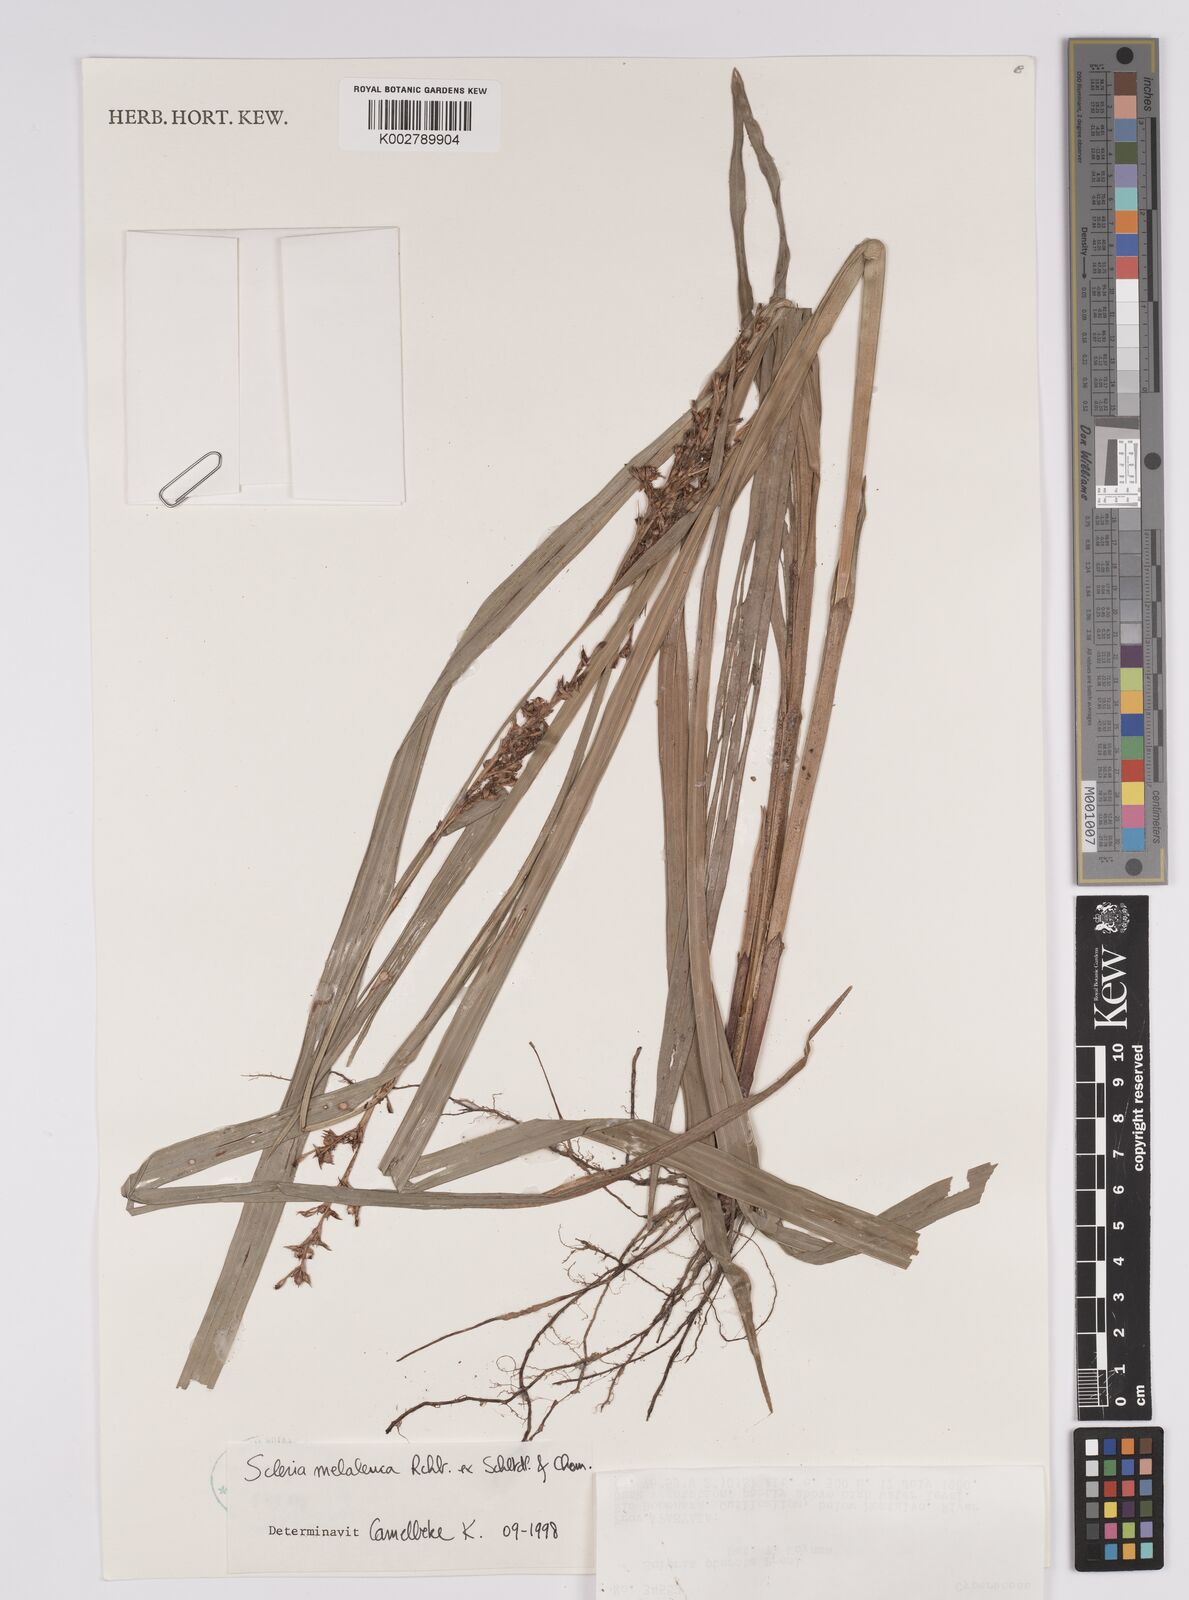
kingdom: Plantae
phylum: Tracheophyta
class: Liliopsida
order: Poales
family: Cyperaceae
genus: Scleria
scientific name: Scleria gaertneri
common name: Cortadera blanca
